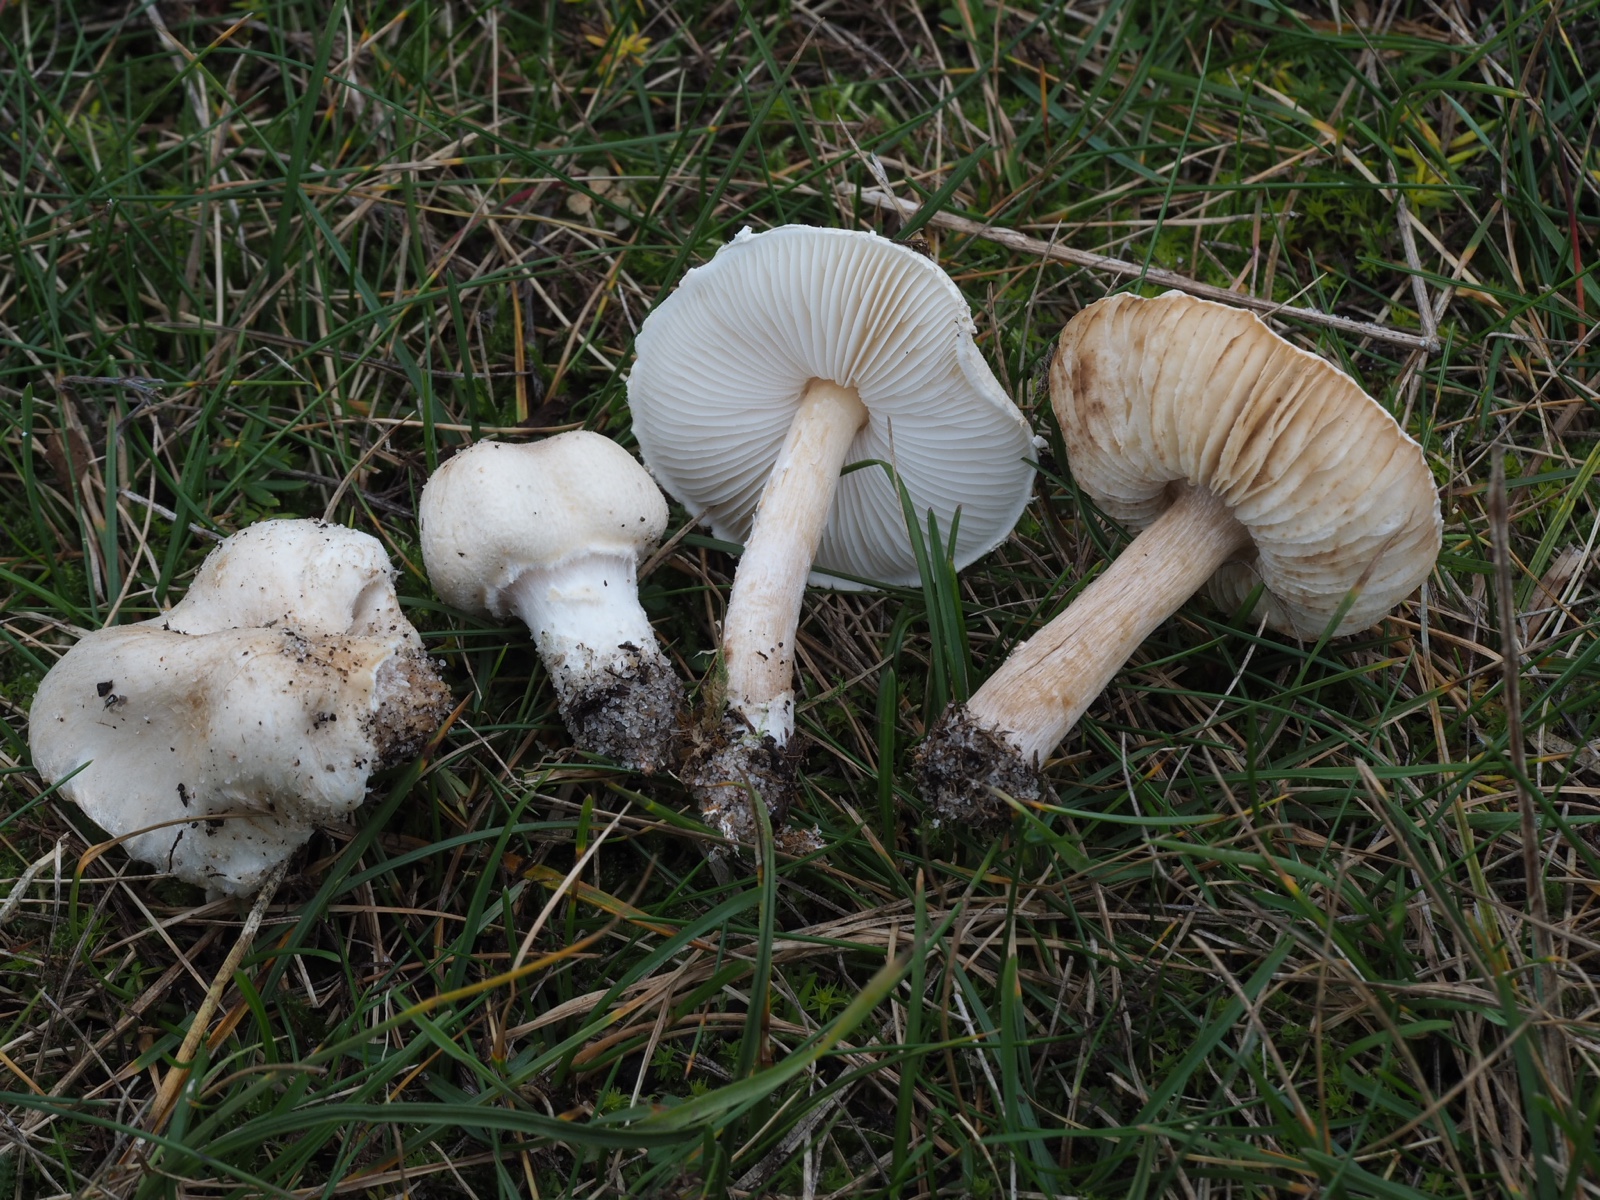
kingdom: Fungi
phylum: Basidiomycota
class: Agaricomycetes
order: Agaricales
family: Agaricaceae
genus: Lepiota
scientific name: Lepiota erminea
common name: hvid parasolhat
